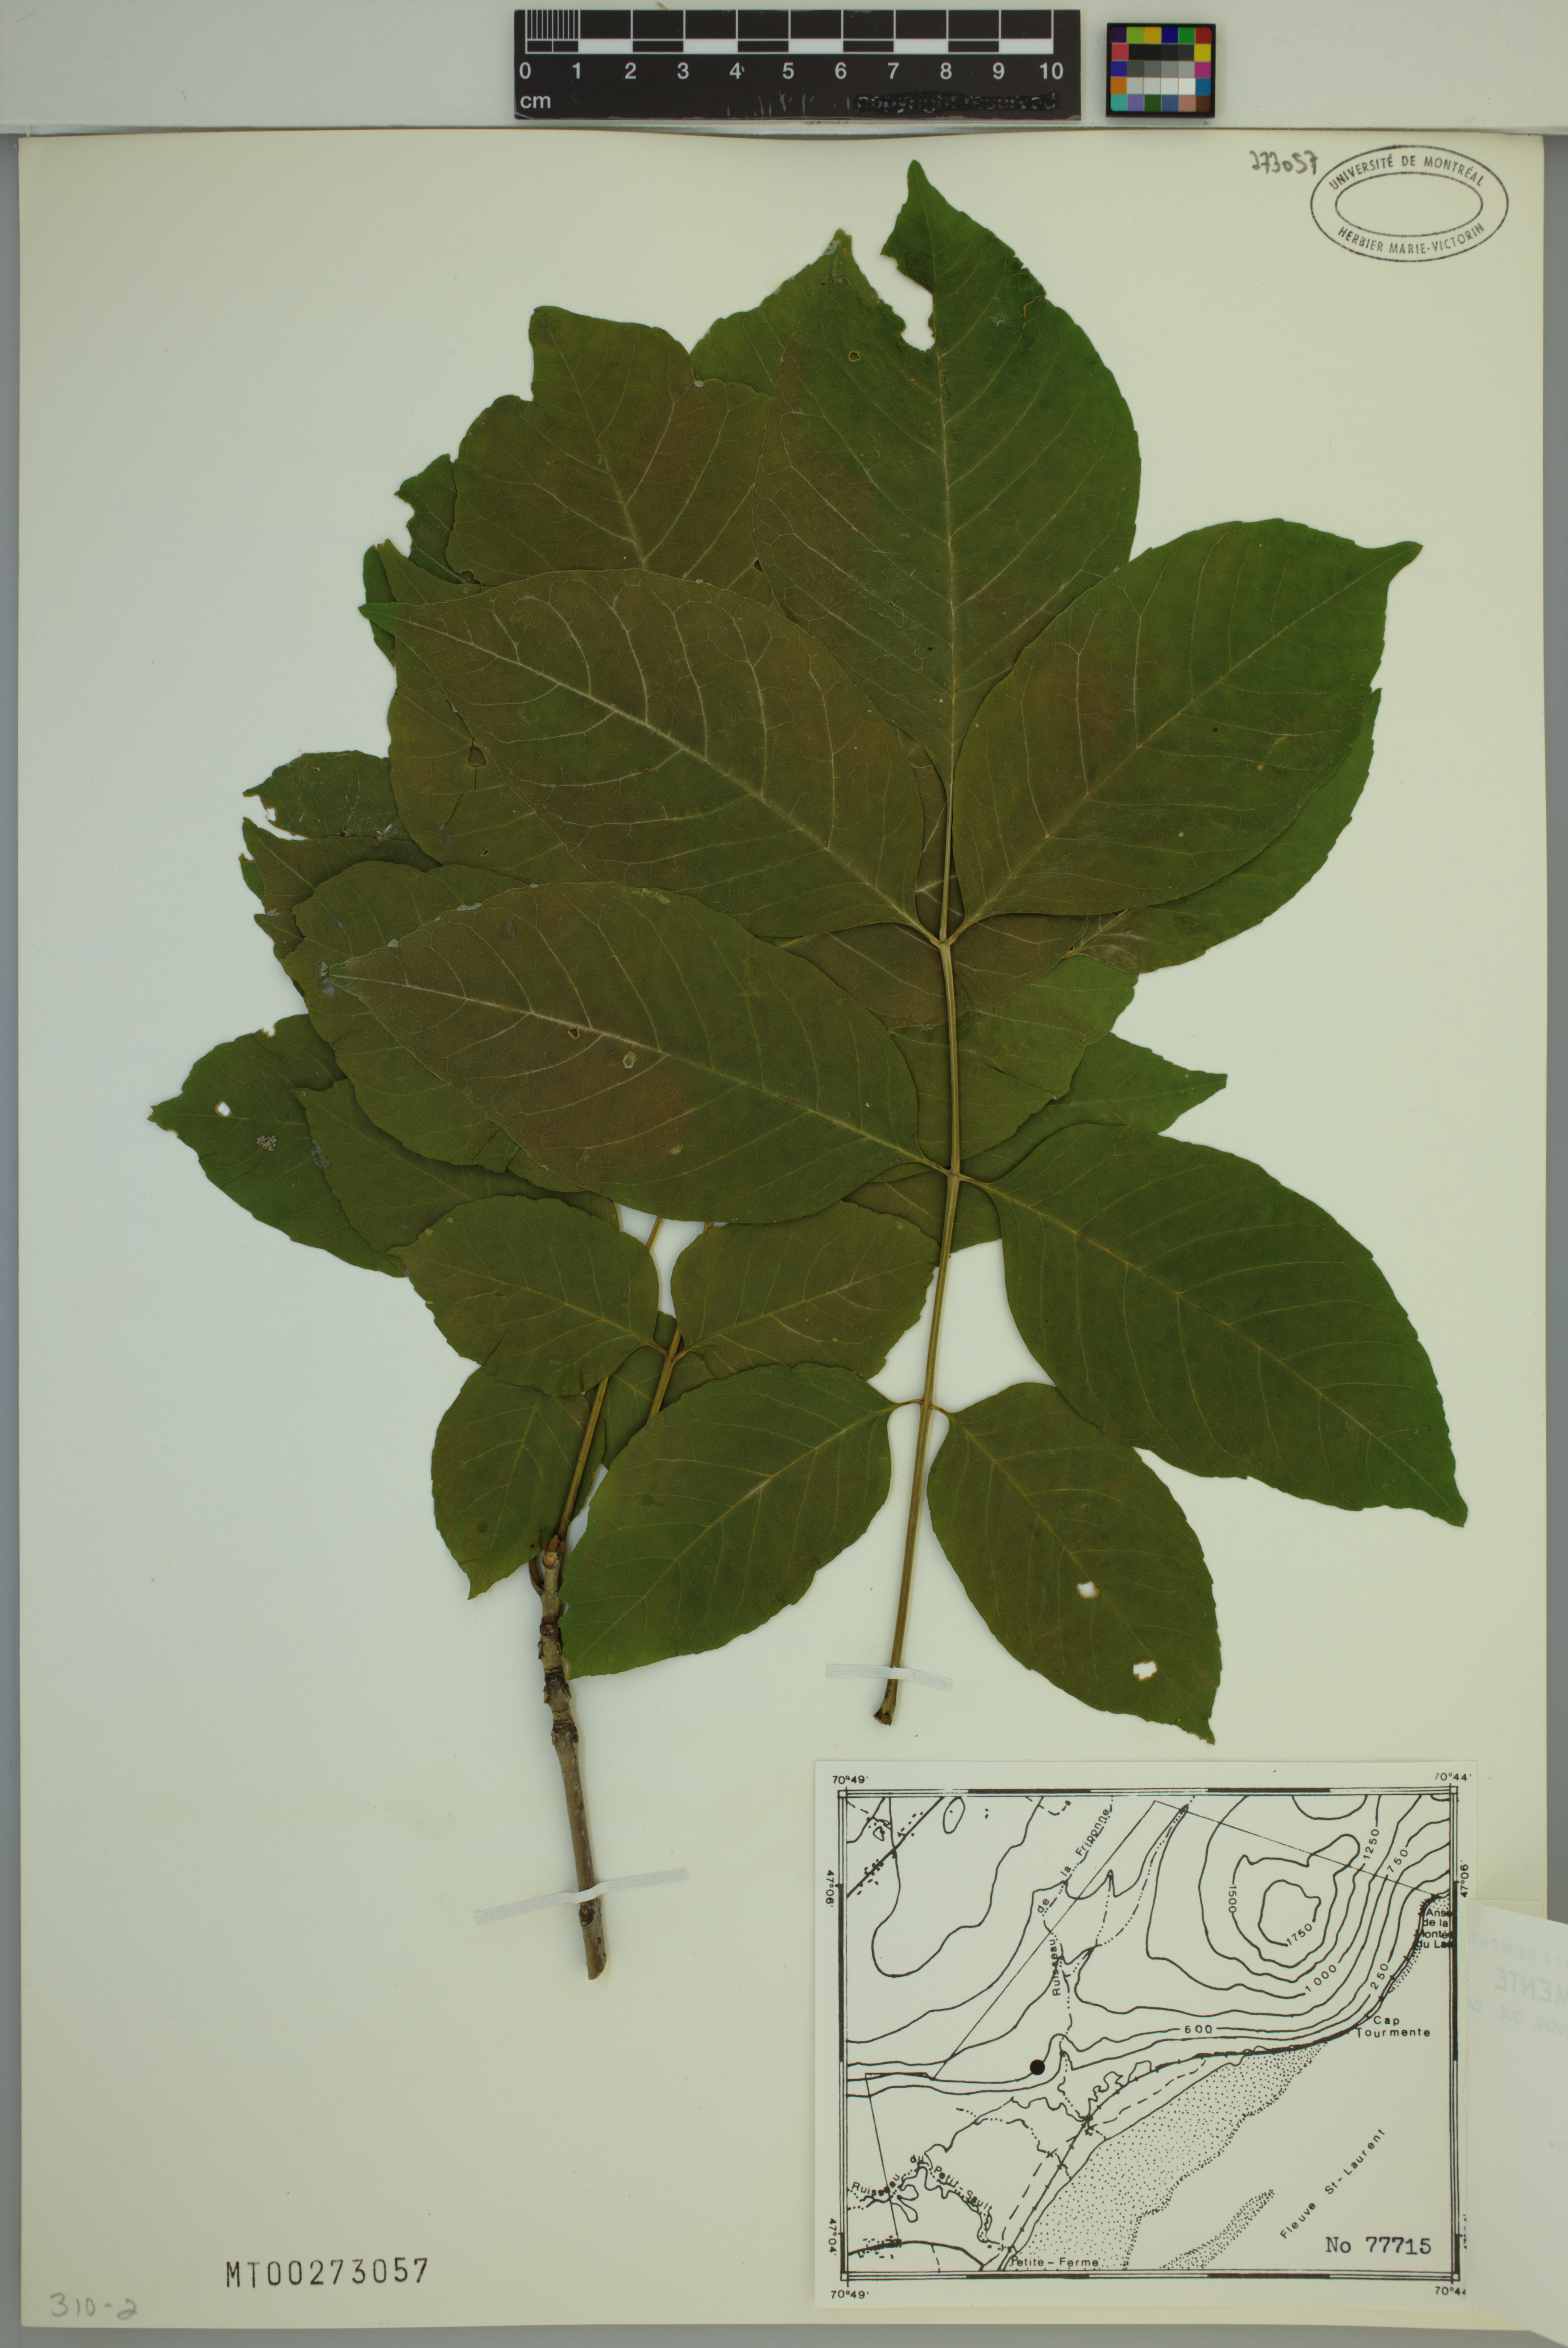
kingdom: Plantae
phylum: Tracheophyta
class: Magnoliopsida
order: Lamiales
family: Oleaceae
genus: Fraxinus
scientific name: Fraxinus americana
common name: White ash
